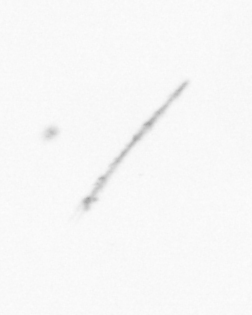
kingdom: Chromista
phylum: Ochrophyta
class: Bacillariophyceae
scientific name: Bacillariophyceae
